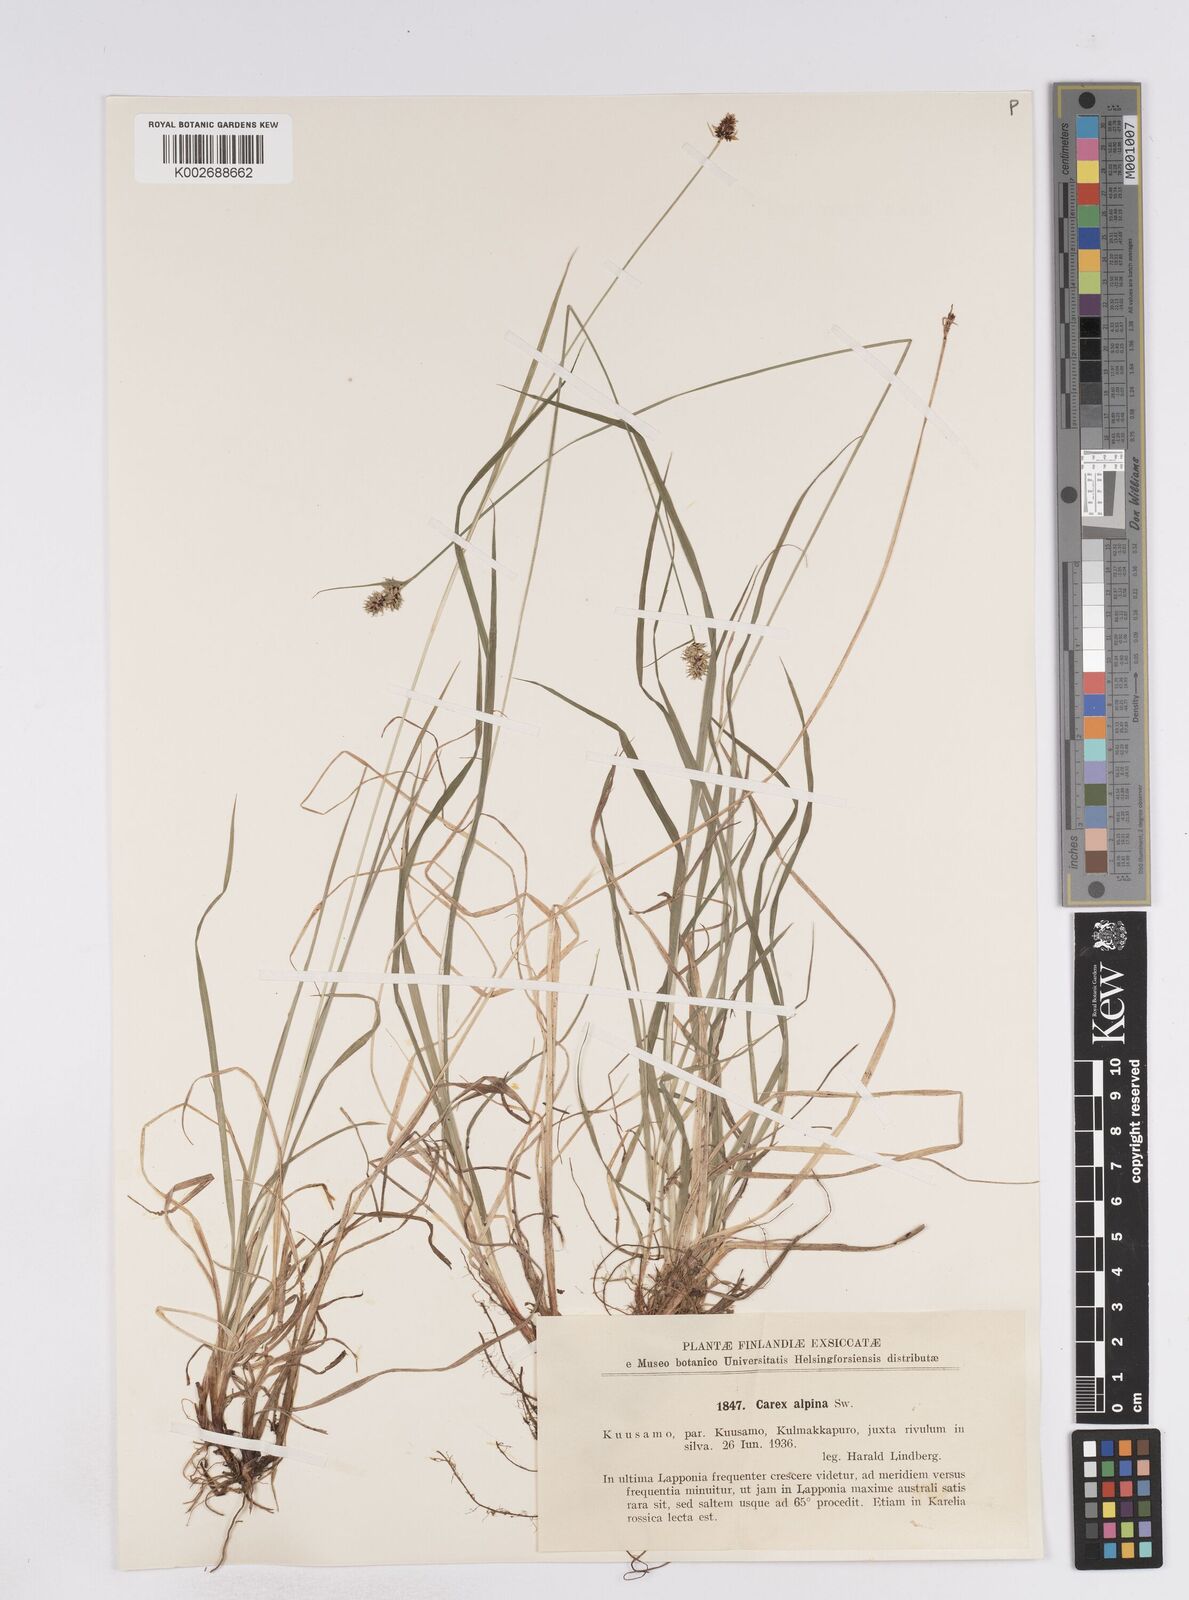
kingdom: Plantae
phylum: Tracheophyta
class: Liliopsida
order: Poales
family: Cyperaceae
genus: Carex
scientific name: Carex media
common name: Alpine sedge
